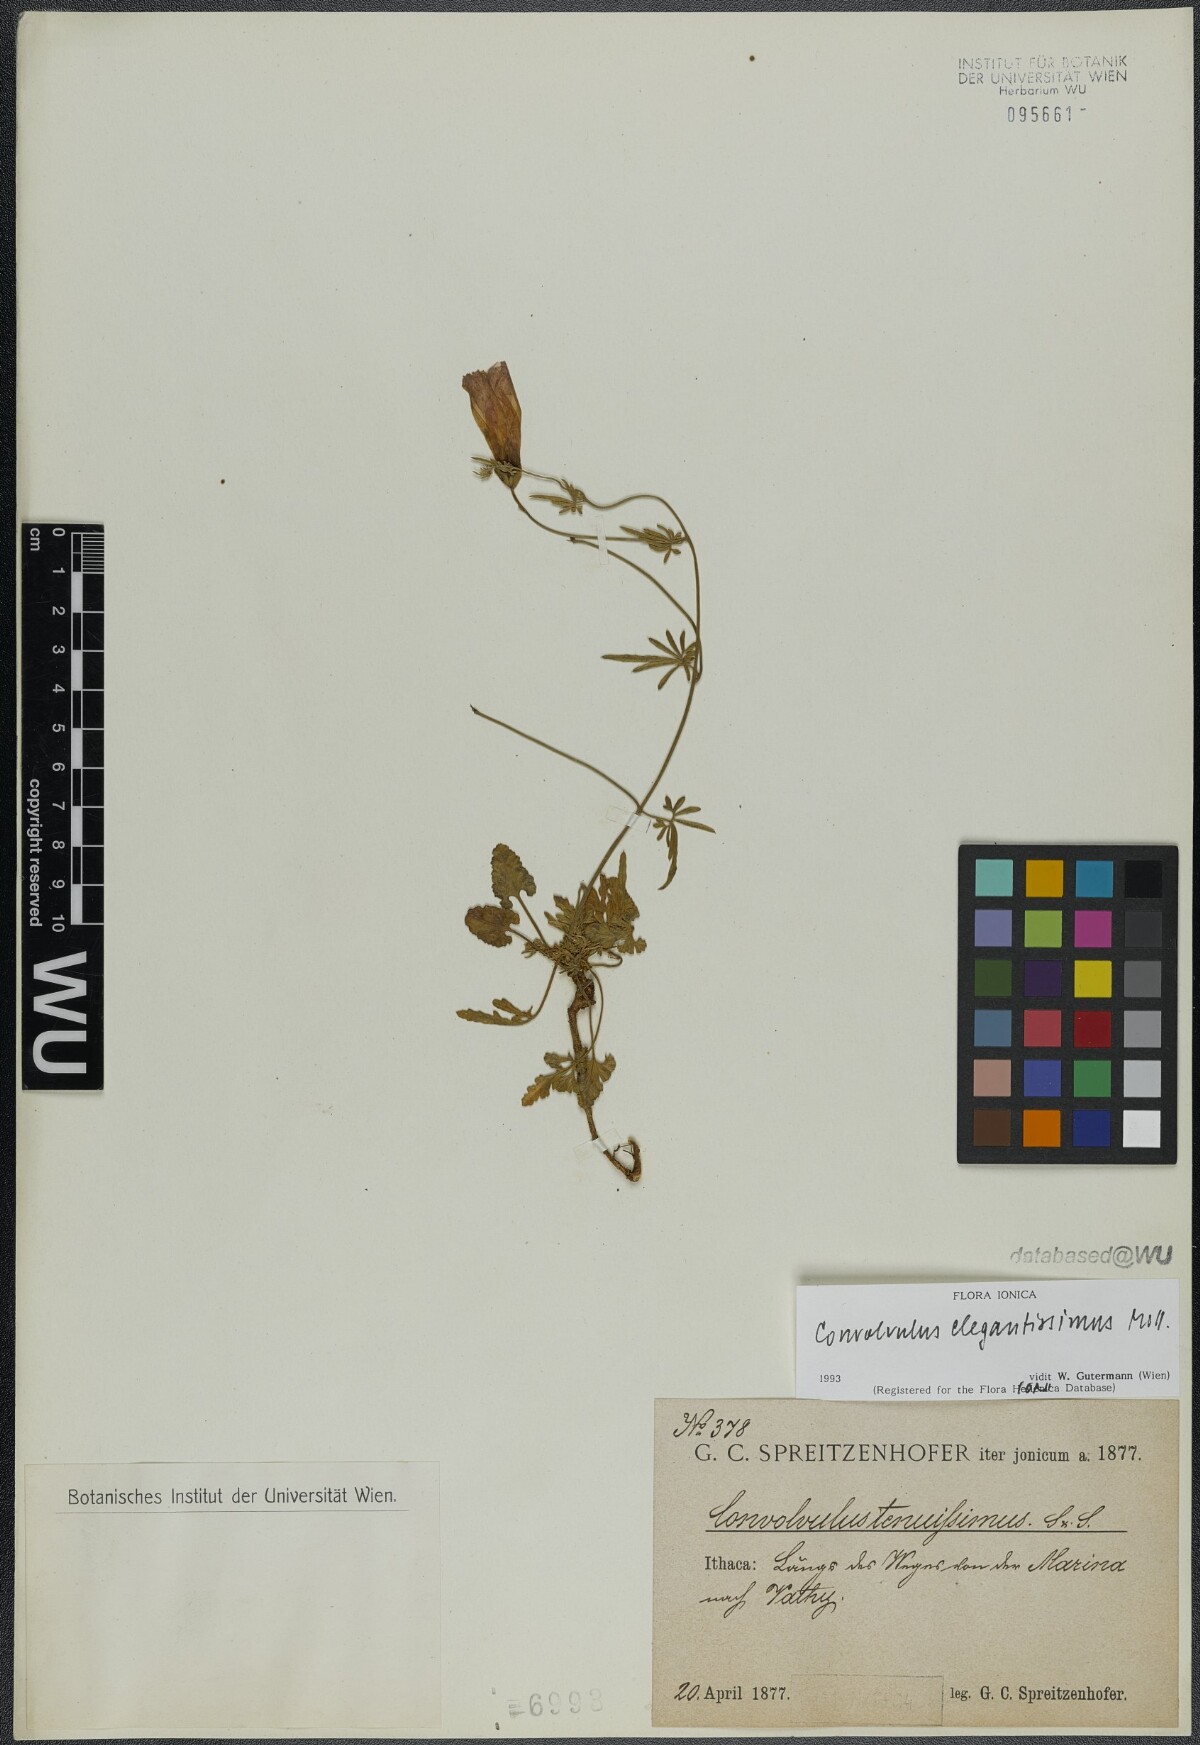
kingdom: Plantae
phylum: Tracheophyta
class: Magnoliopsida
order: Solanales
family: Convolvulaceae
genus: Convolvulus
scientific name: Convolvulus elegantissimus
